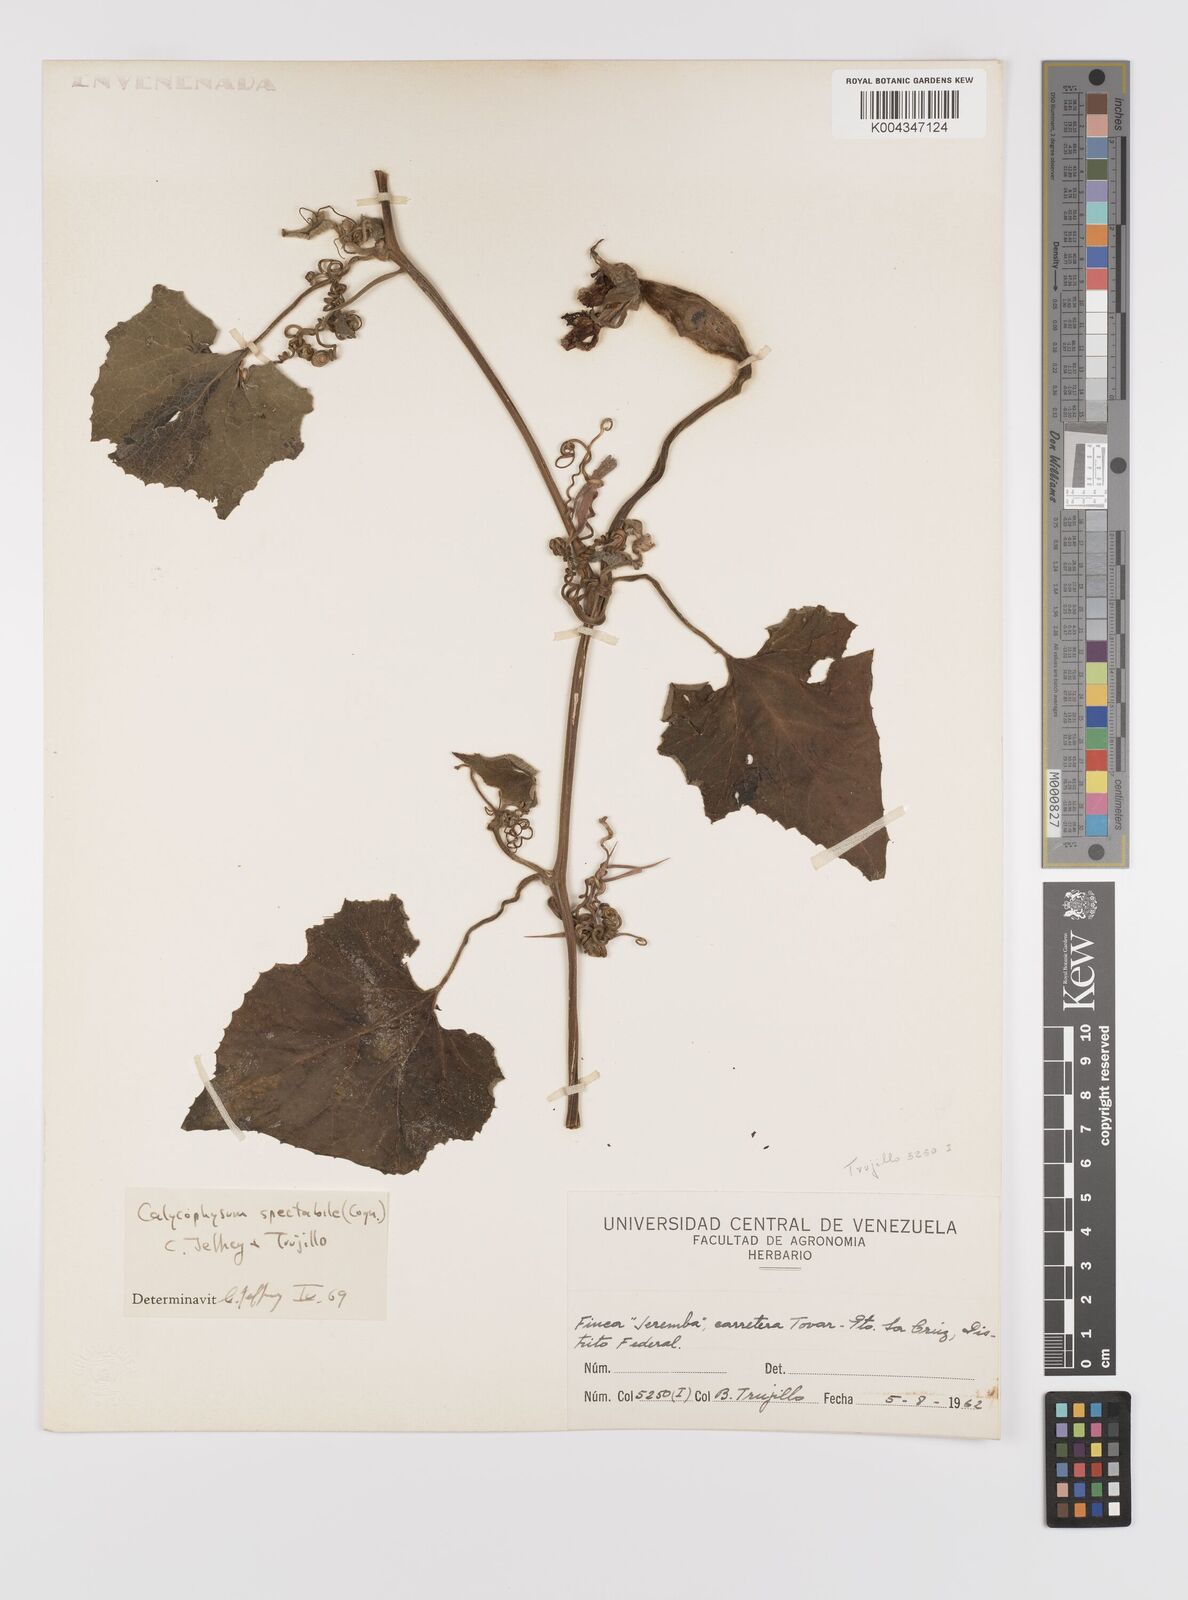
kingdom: Plantae
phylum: Tracheophyta
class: Magnoliopsida
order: Cucurbitales
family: Cucurbitaceae
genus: Calycophysum
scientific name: Calycophysum spectabile
